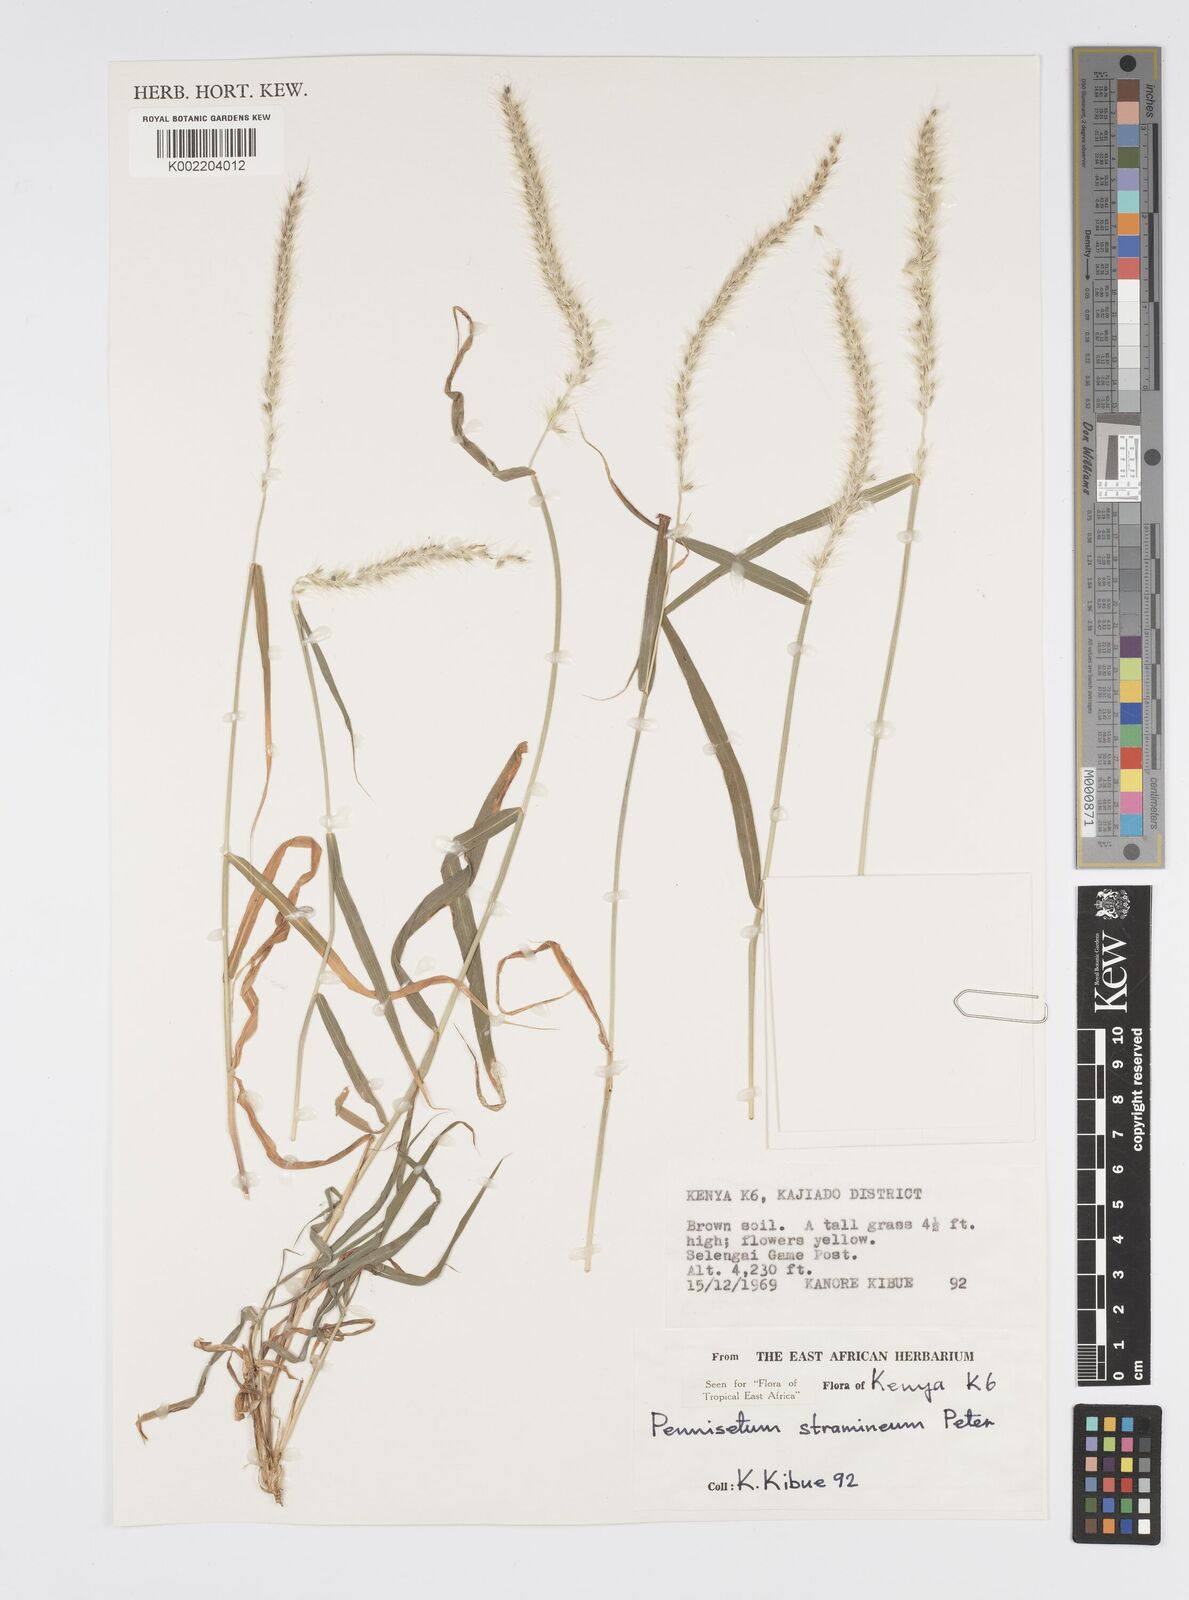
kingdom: Plantae
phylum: Tracheophyta
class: Liliopsida
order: Poales
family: Poaceae
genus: Cenchrus
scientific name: Cenchrus stramineus
